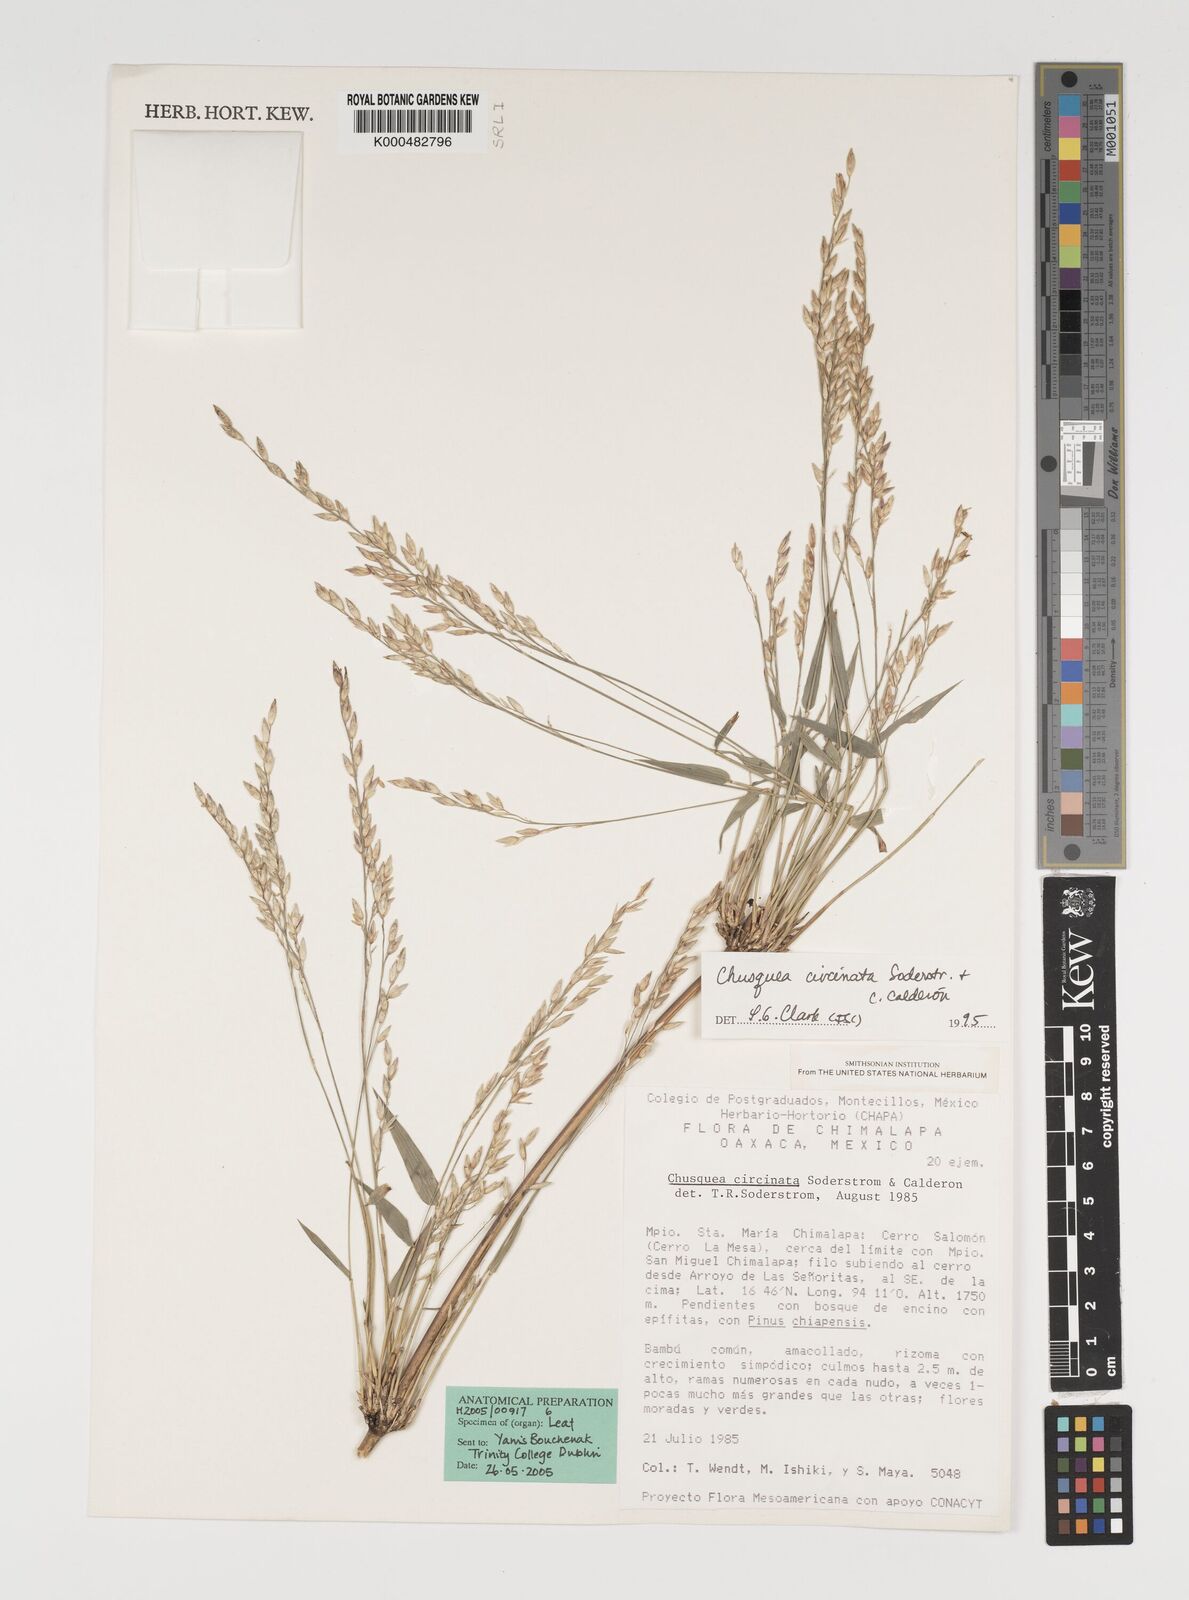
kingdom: Plantae
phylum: Tracheophyta
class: Liliopsida
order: Poales
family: Poaceae
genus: Chusquea
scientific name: Chusquea
